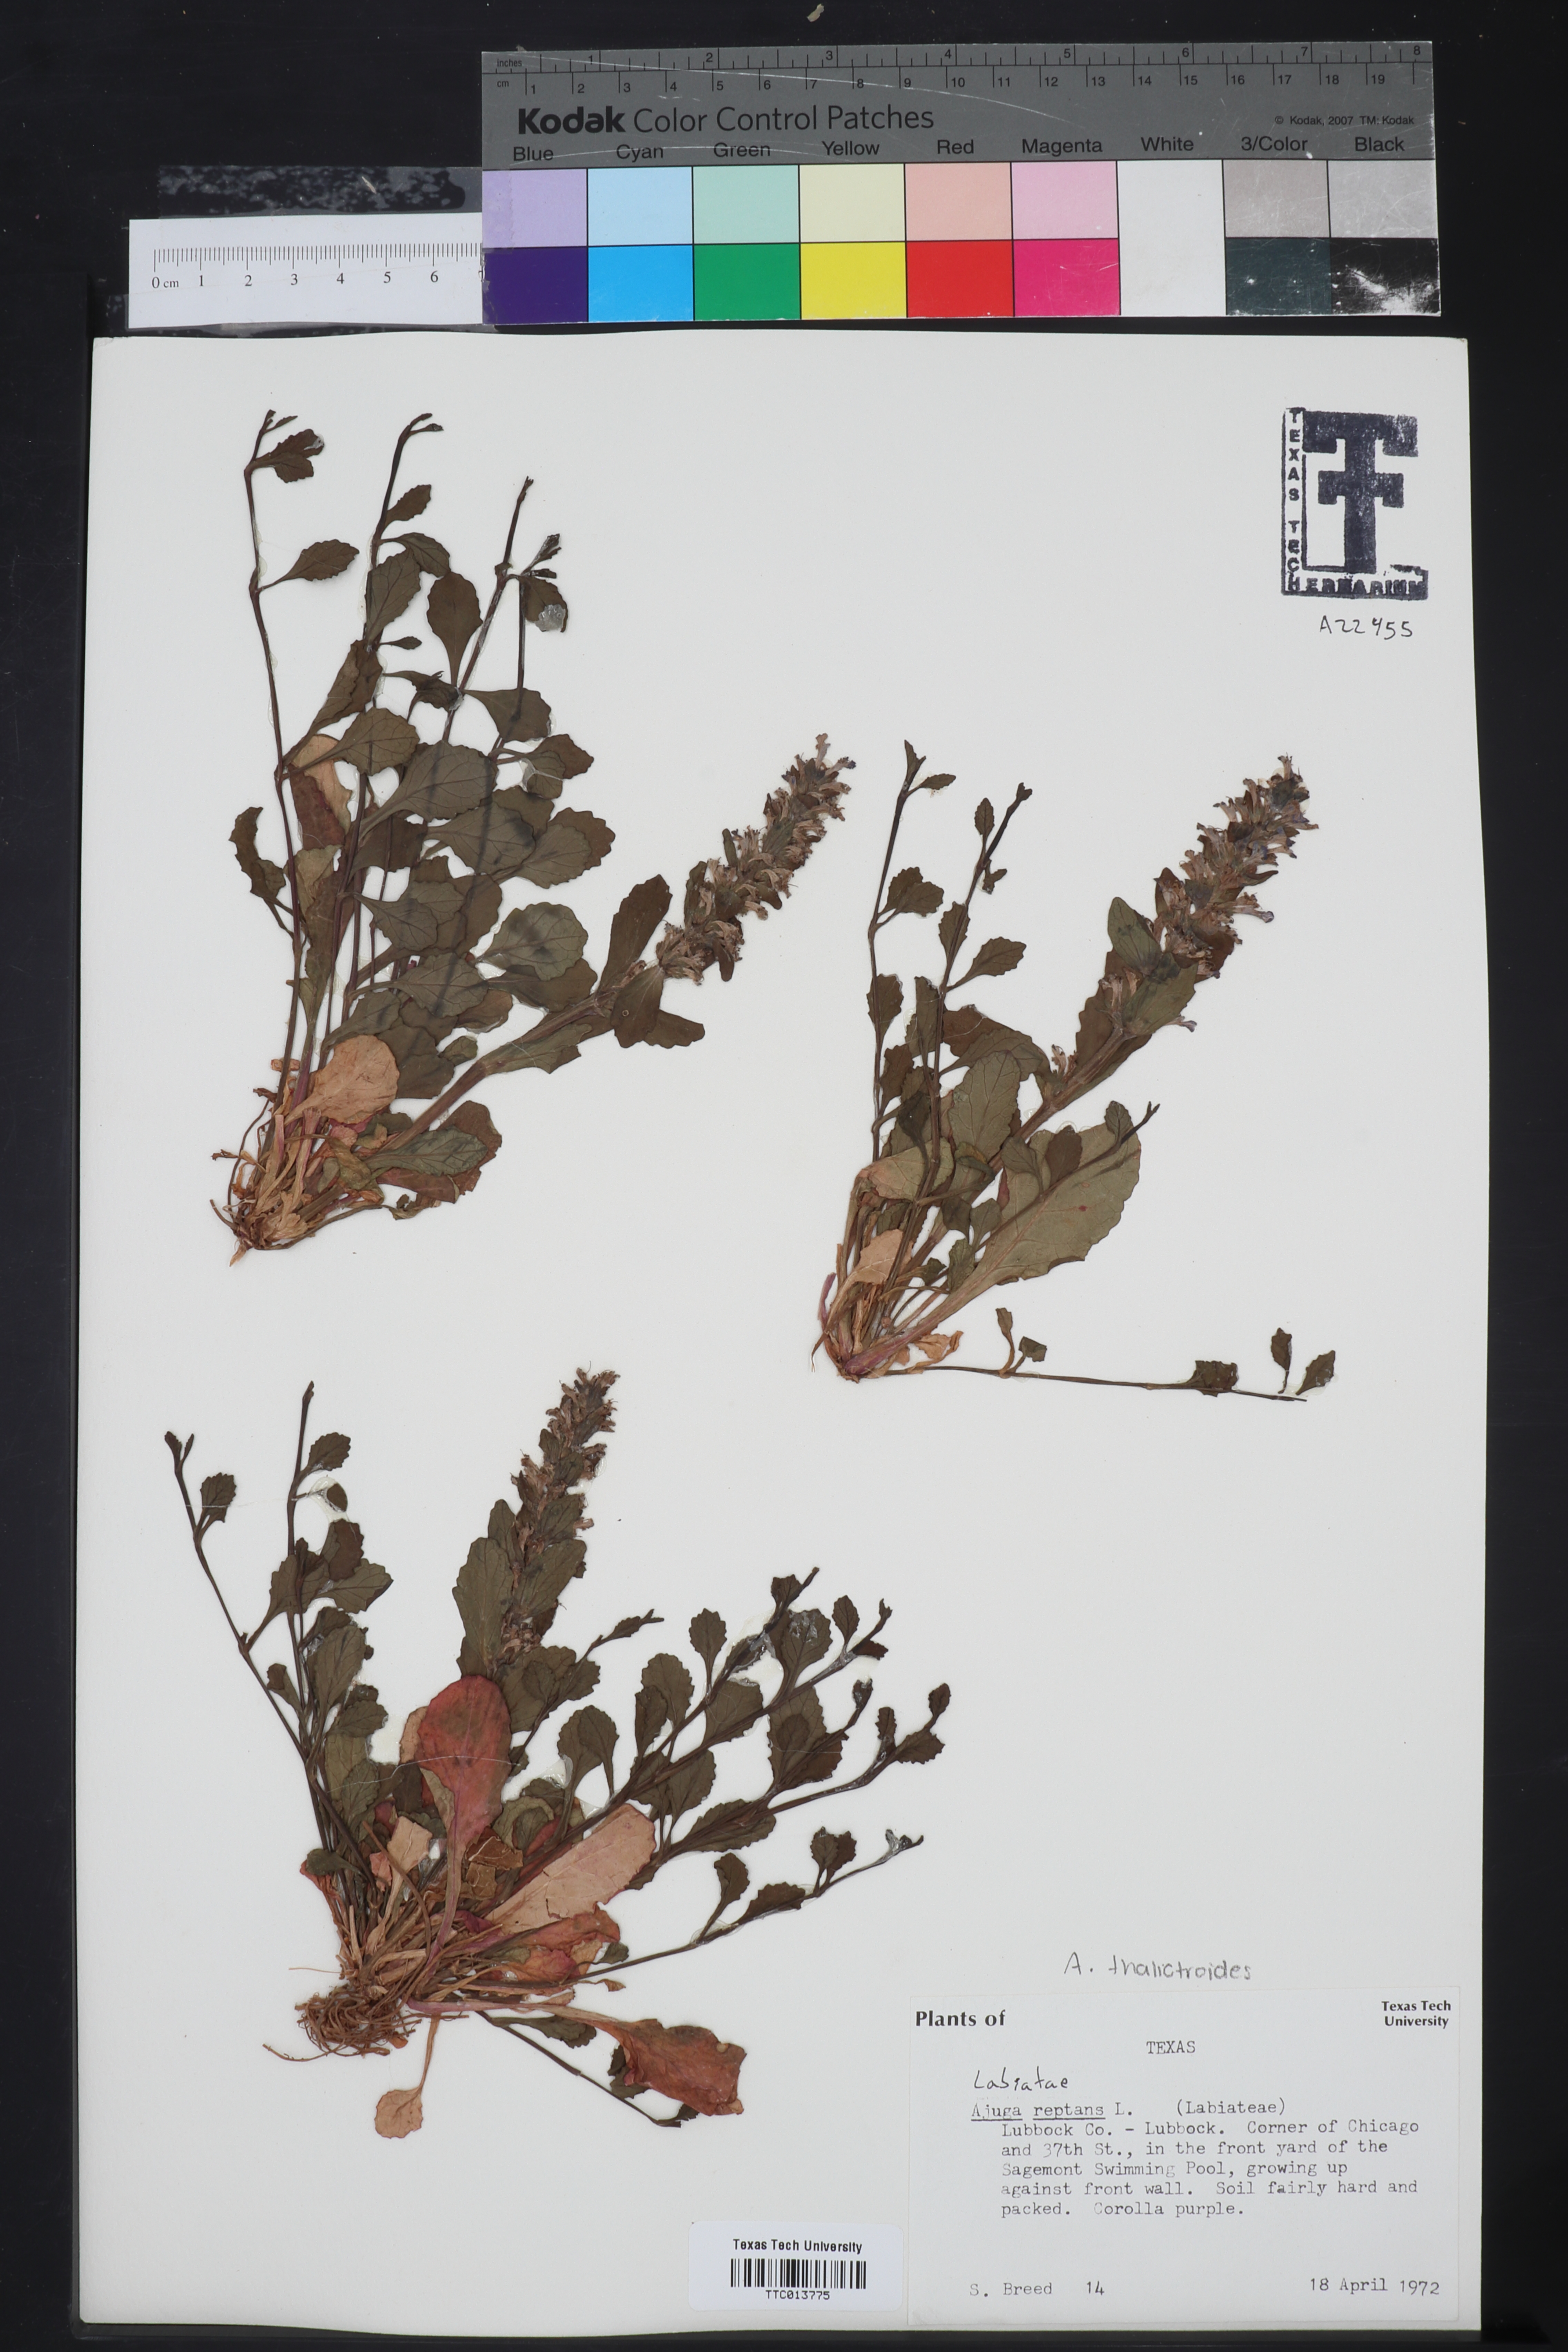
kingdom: Plantae
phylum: Tracheophyta
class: Magnoliopsida
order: Lamiales
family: Lamiaceae
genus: Ajuga
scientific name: Ajuga reptans
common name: Bugle
